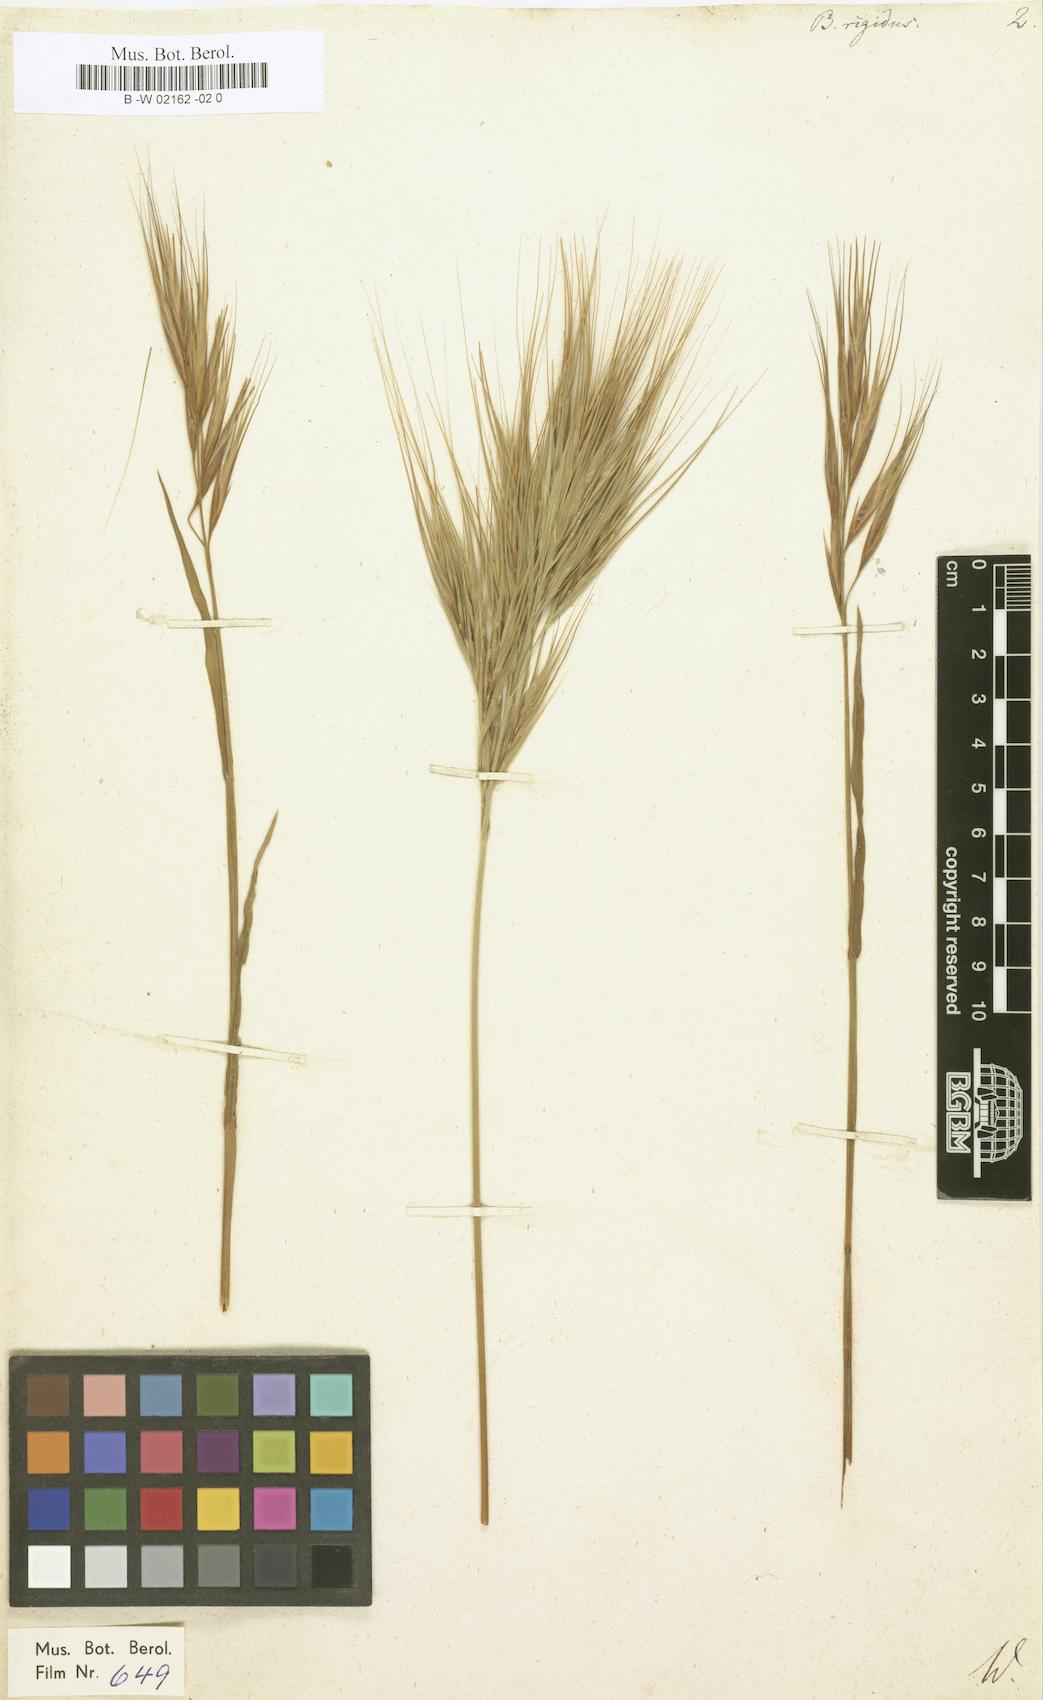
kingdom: Plantae
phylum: Tracheophyta
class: Liliopsida
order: Poales
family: Poaceae
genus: Bromus
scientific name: Bromus rigidus
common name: Ripgut brome
